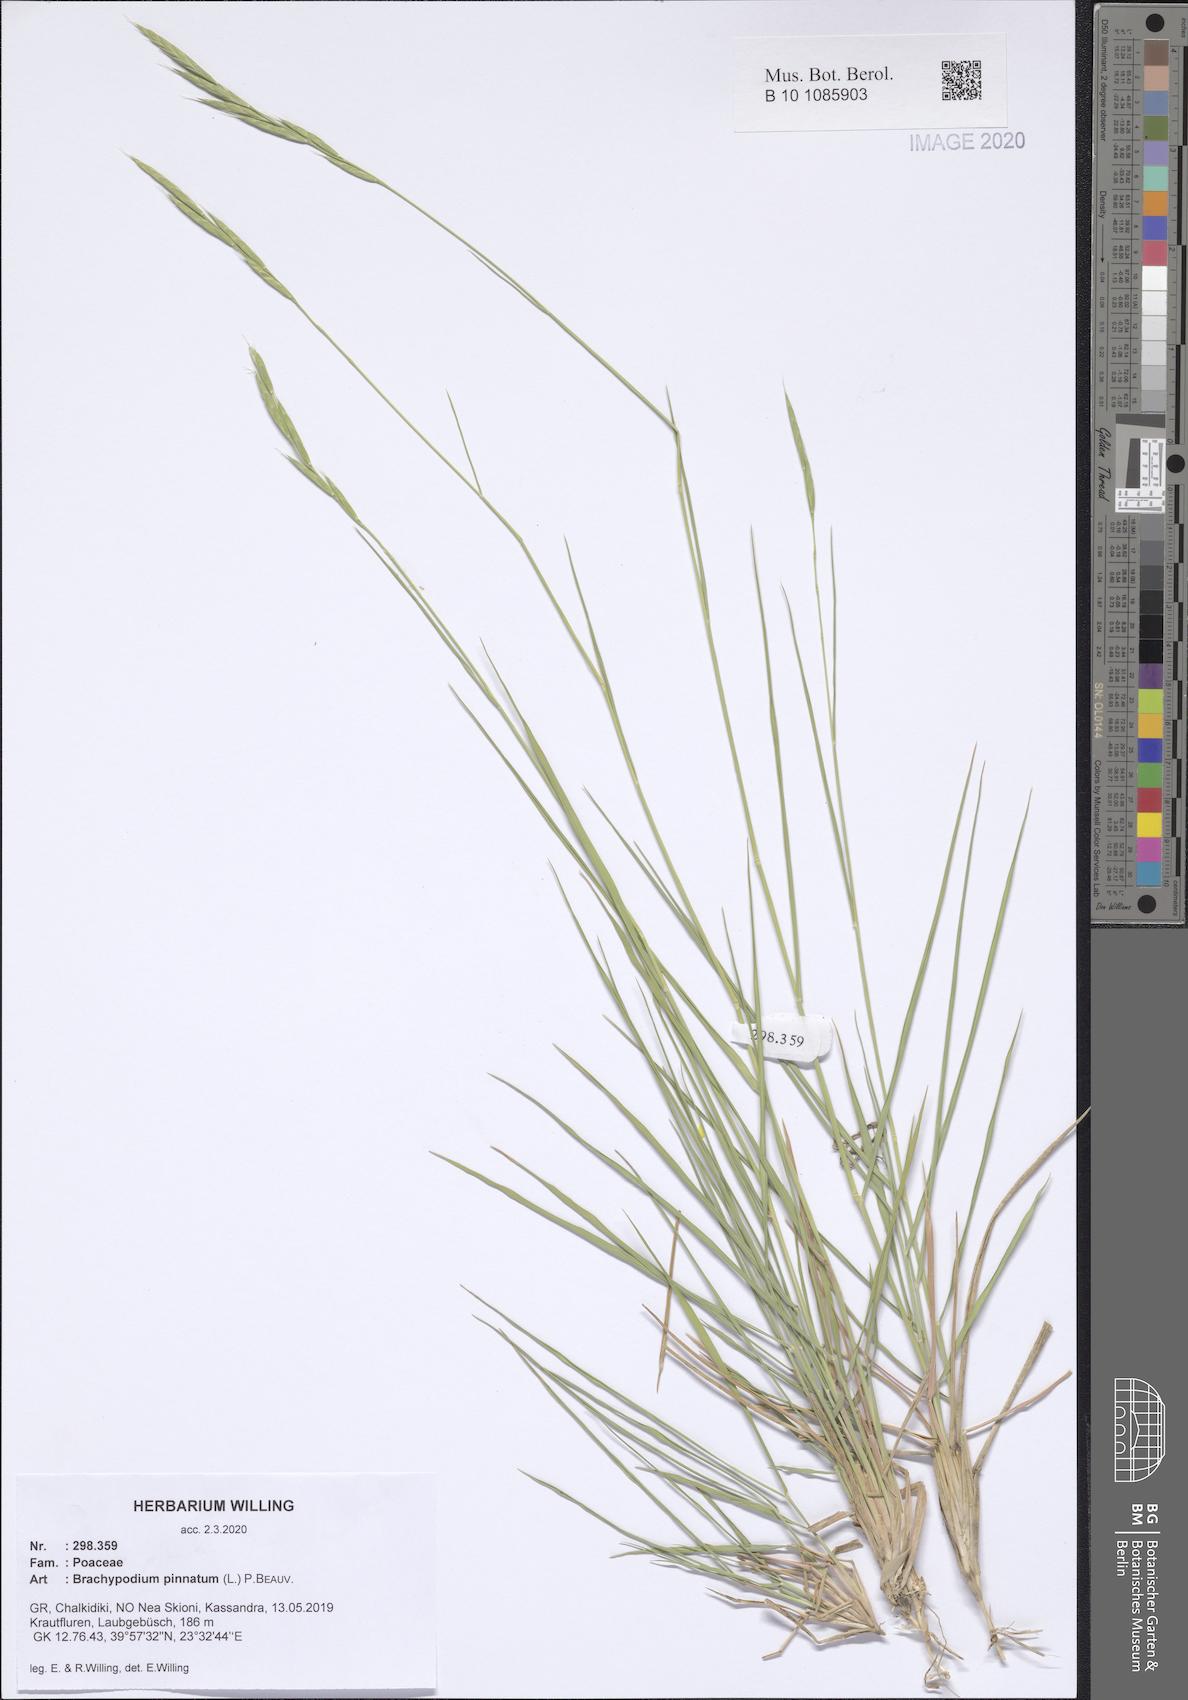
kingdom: Plantae
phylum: Tracheophyta
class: Liliopsida
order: Poales
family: Poaceae
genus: Brachypodium
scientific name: Brachypodium pinnatum
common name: Tor grass
